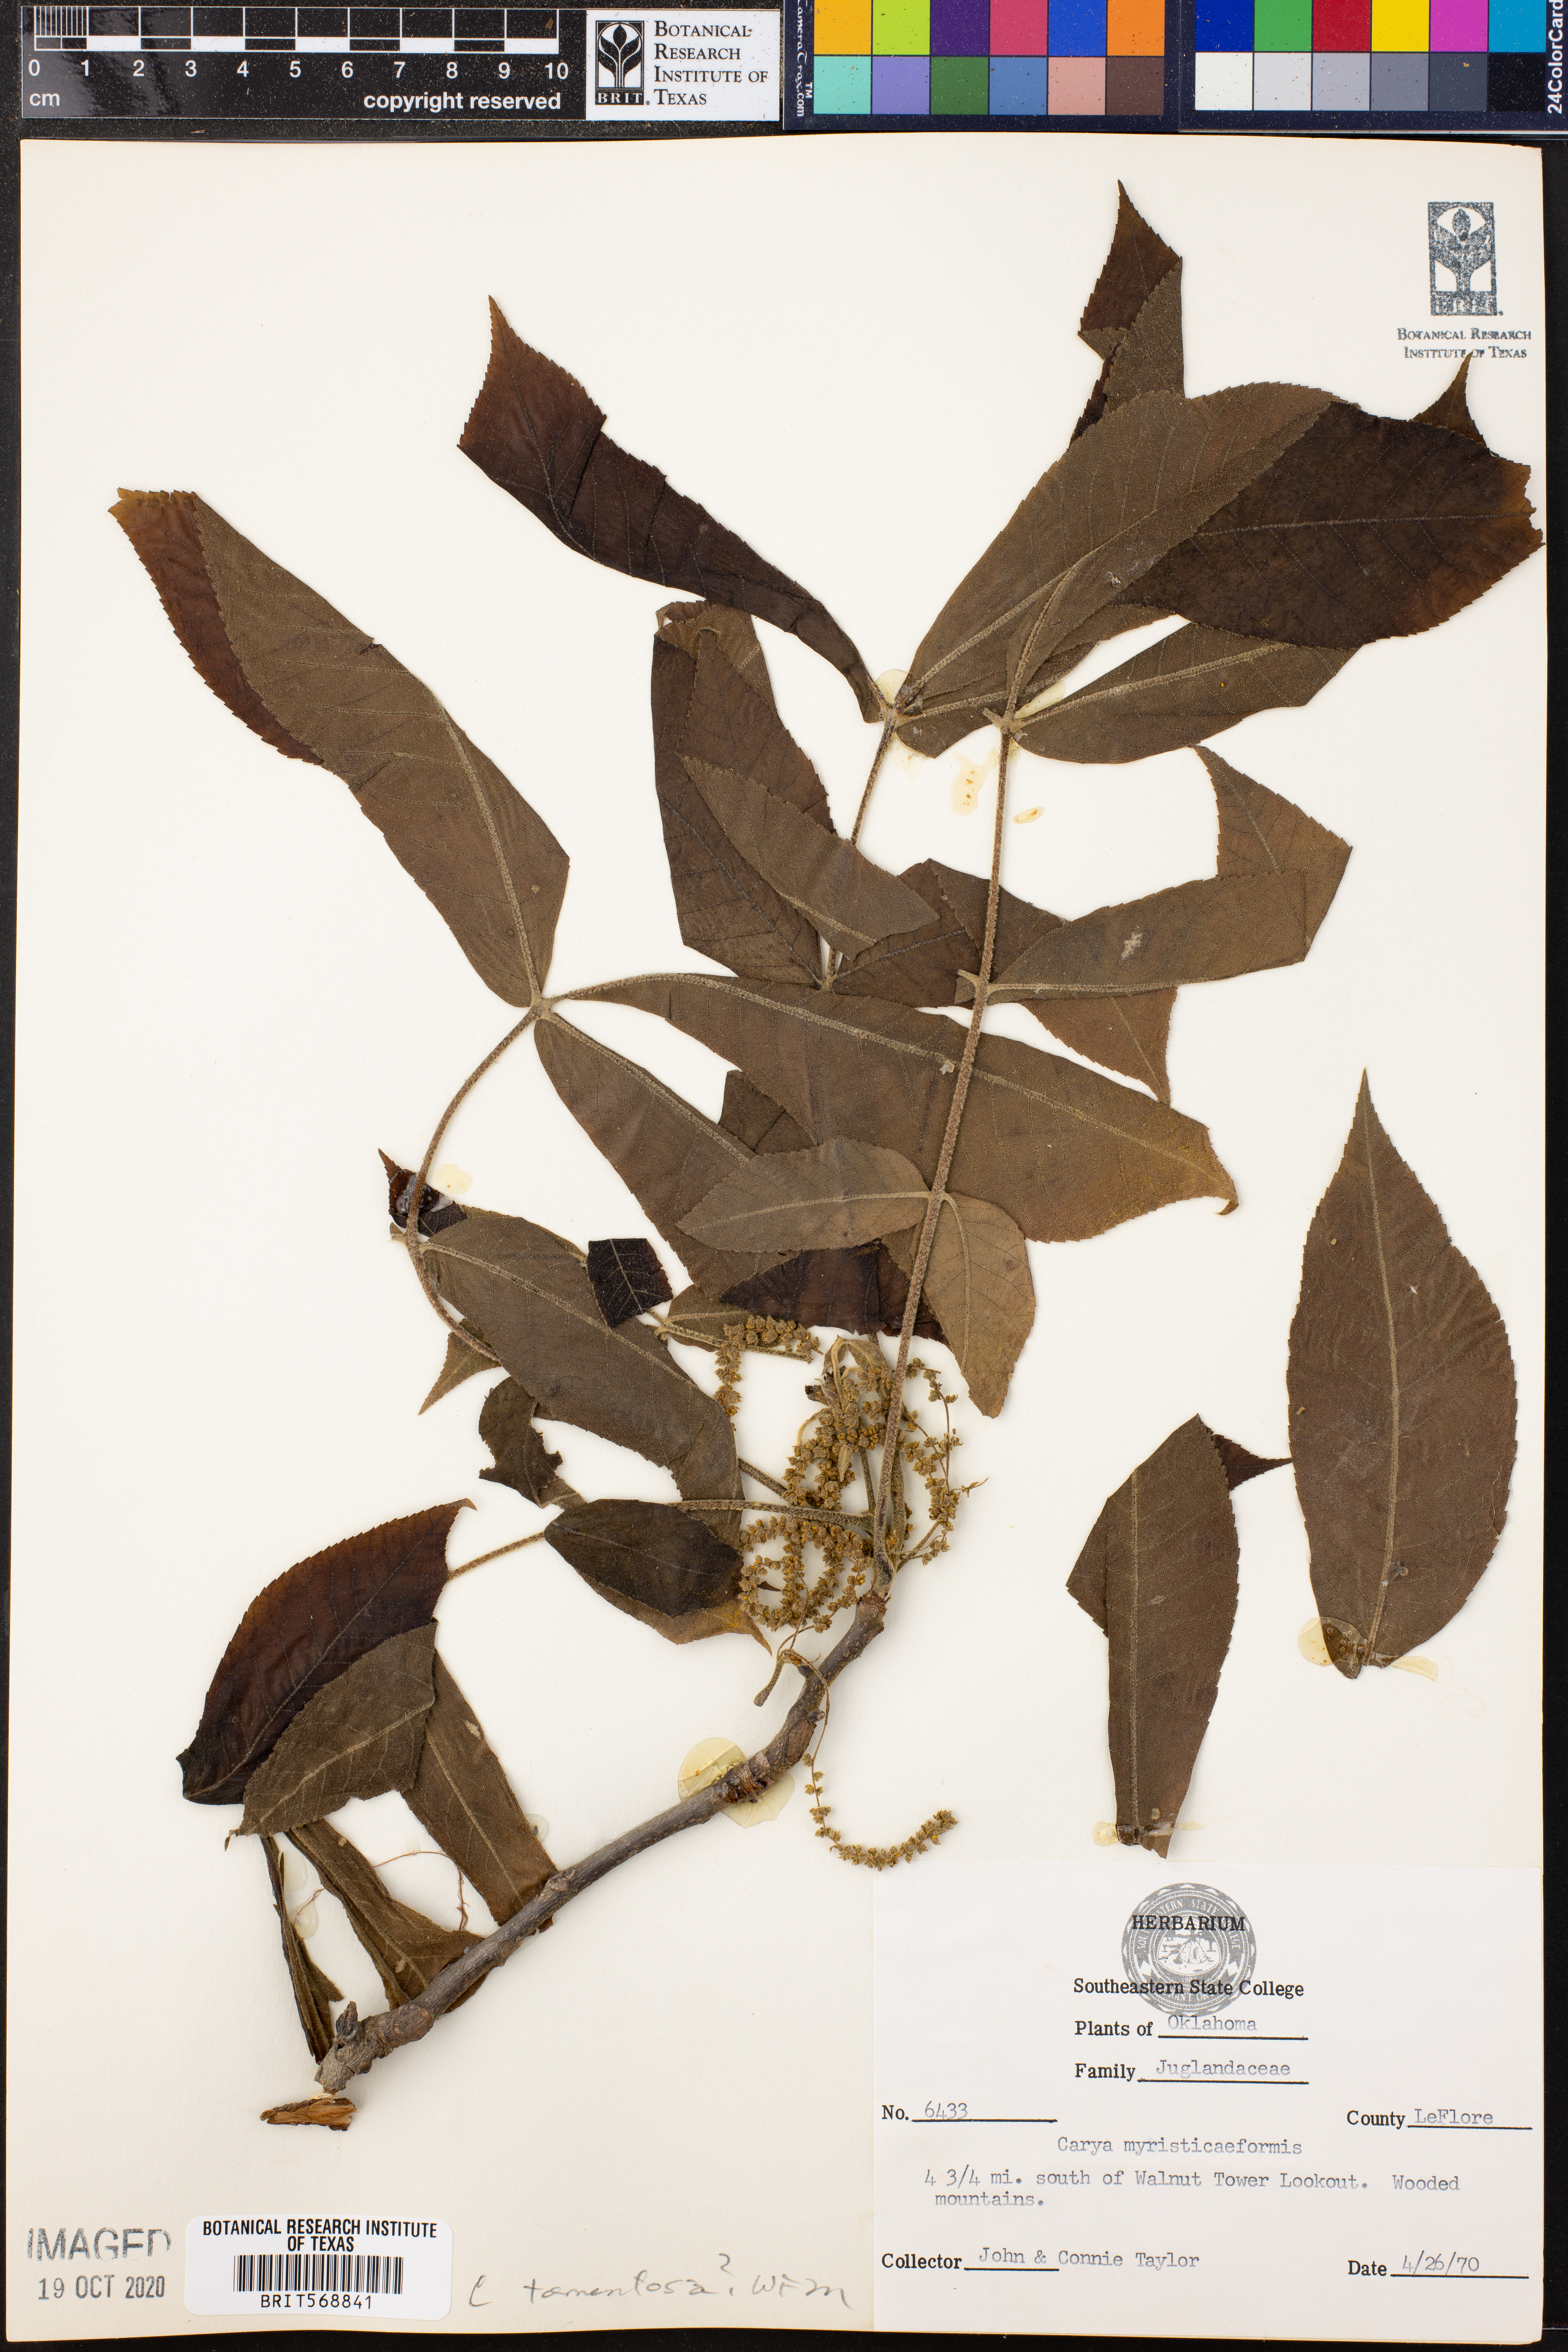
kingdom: Plantae
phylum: Tracheophyta
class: Magnoliopsida
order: Fagales
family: Juglandaceae
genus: Carya
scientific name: Carya myristiciformis
